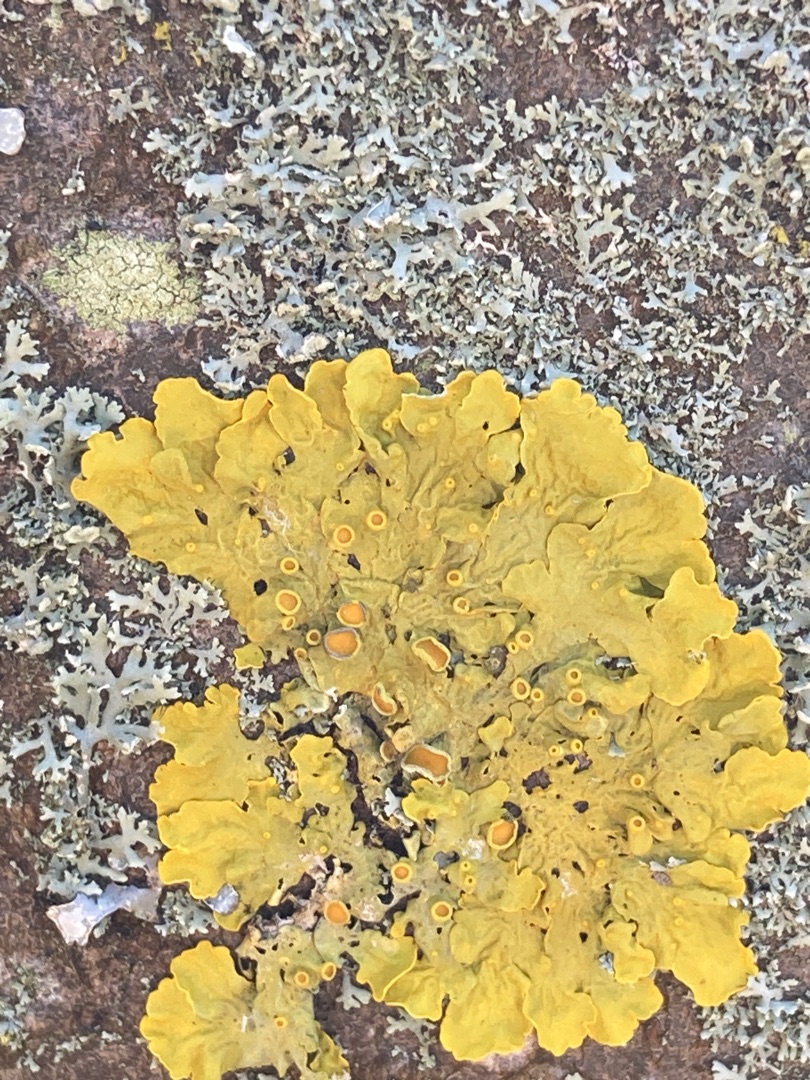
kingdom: Fungi
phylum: Ascomycota
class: Lecanoromycetes
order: Teloschistales
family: Teloschistaceae
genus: Xanthoria
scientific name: Xanthoria parietina
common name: Almindelig væggelav
